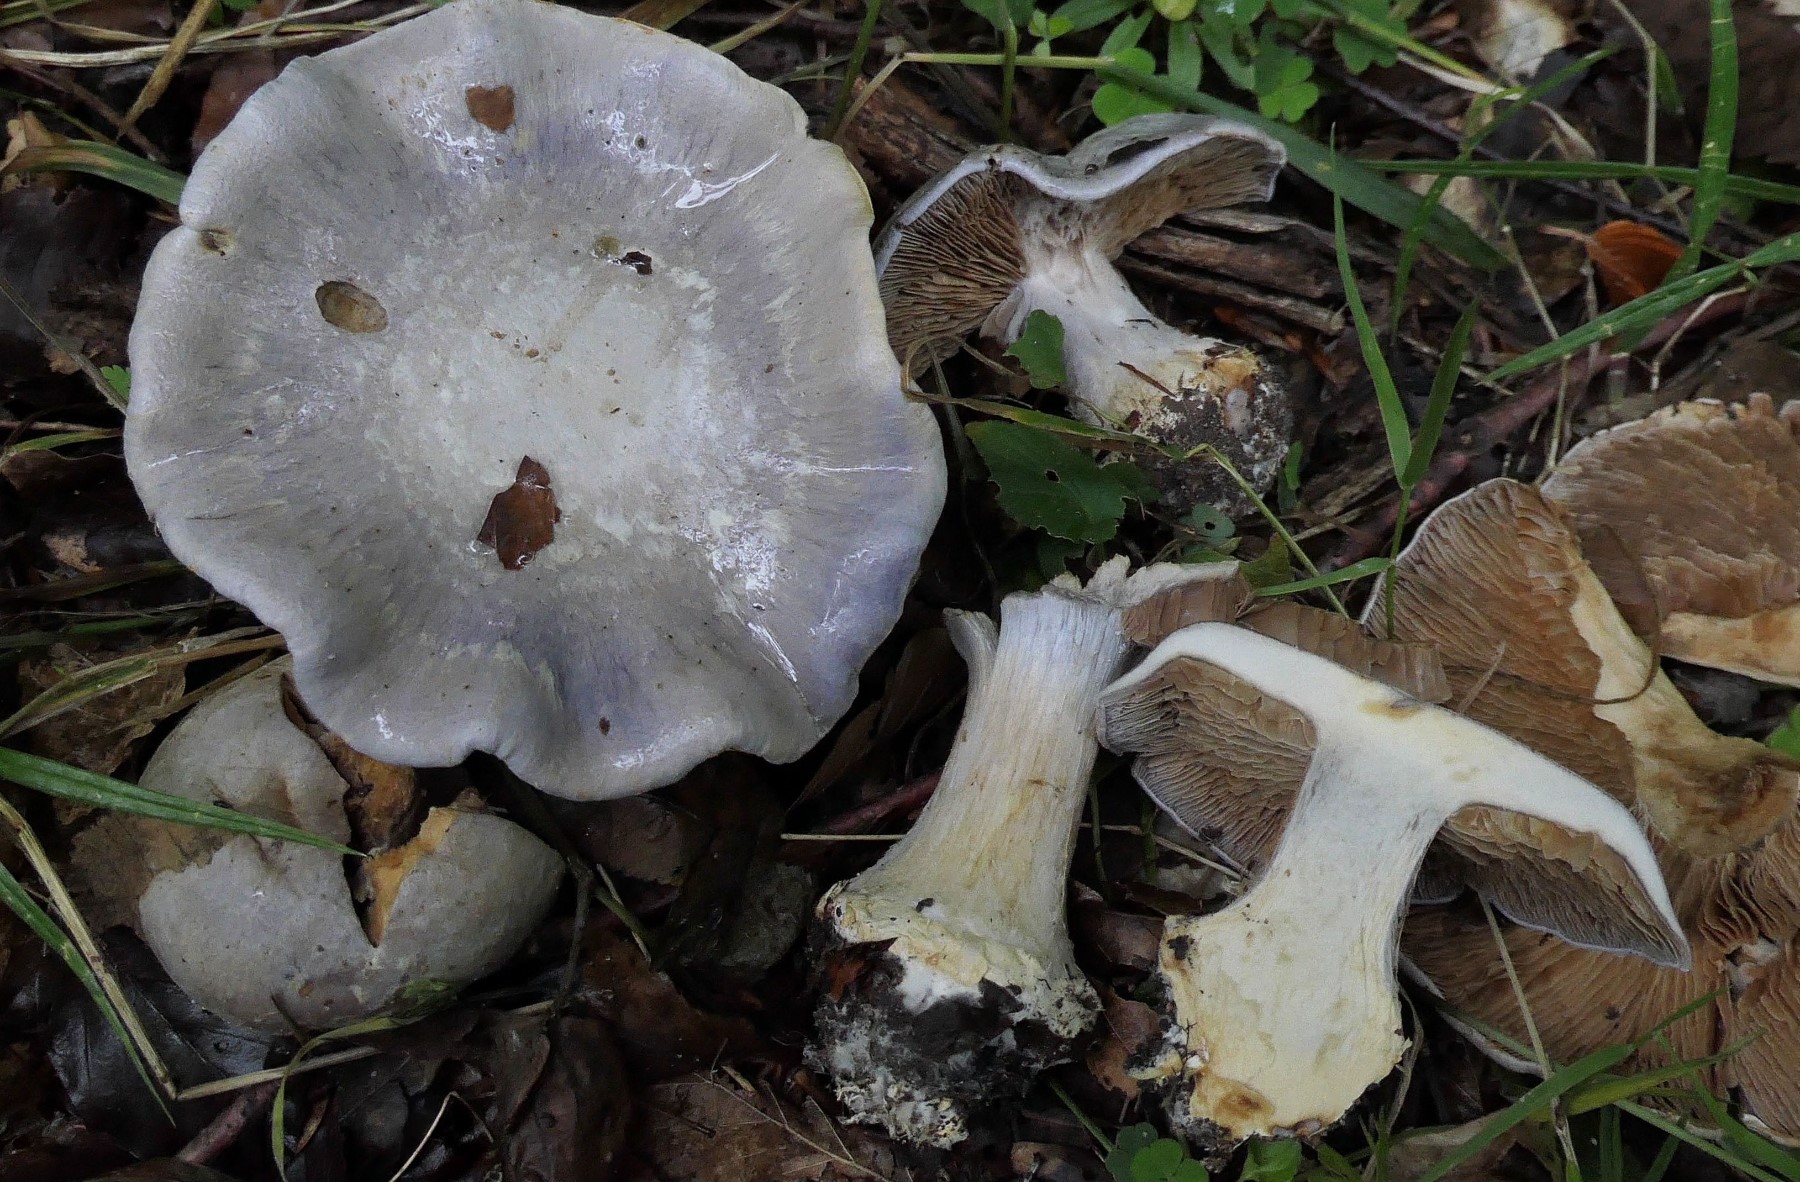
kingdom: Fungi
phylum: Basidiomycota
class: Agaricomycetes
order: Agaricales
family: Cortinariaceae
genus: Cortinarius
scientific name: Cortinarius caerulescens
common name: blåkødet slørhat
